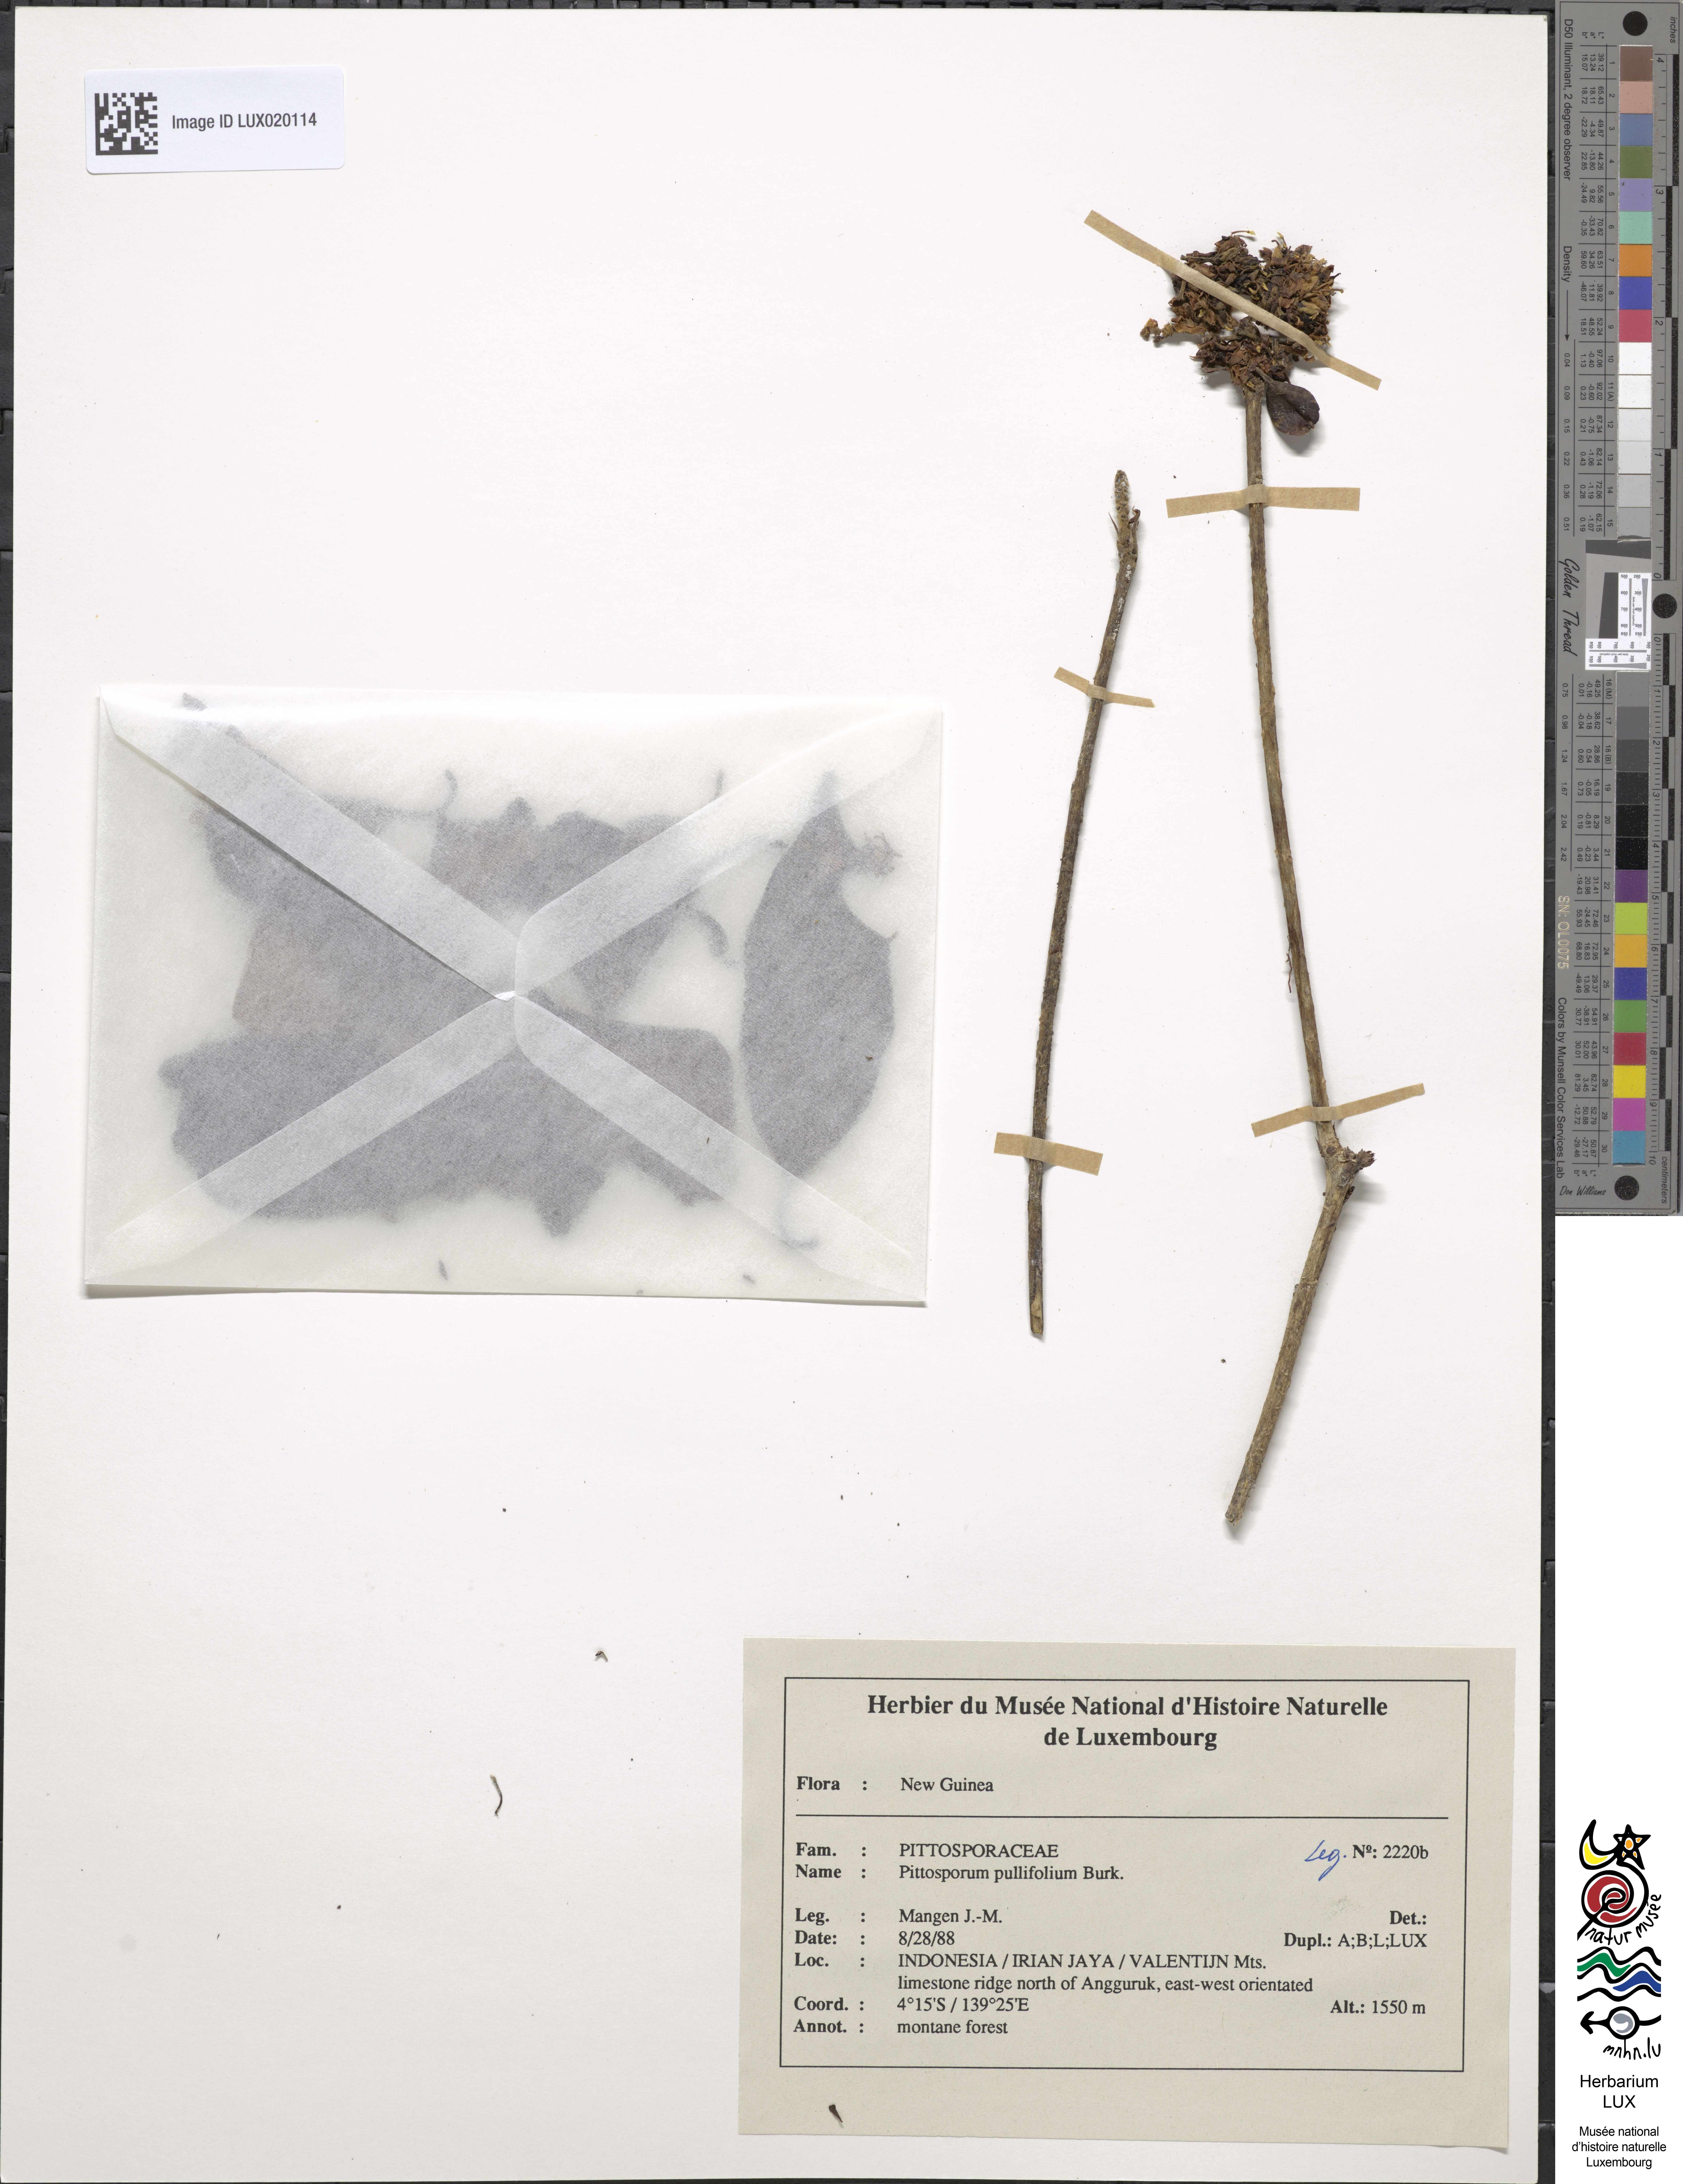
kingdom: Plantae
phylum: Tracheophyta
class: Magnoliopsida
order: Apiales
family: Pittosporaceae
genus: Pittosporum
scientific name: Pittosporum pullifolium
